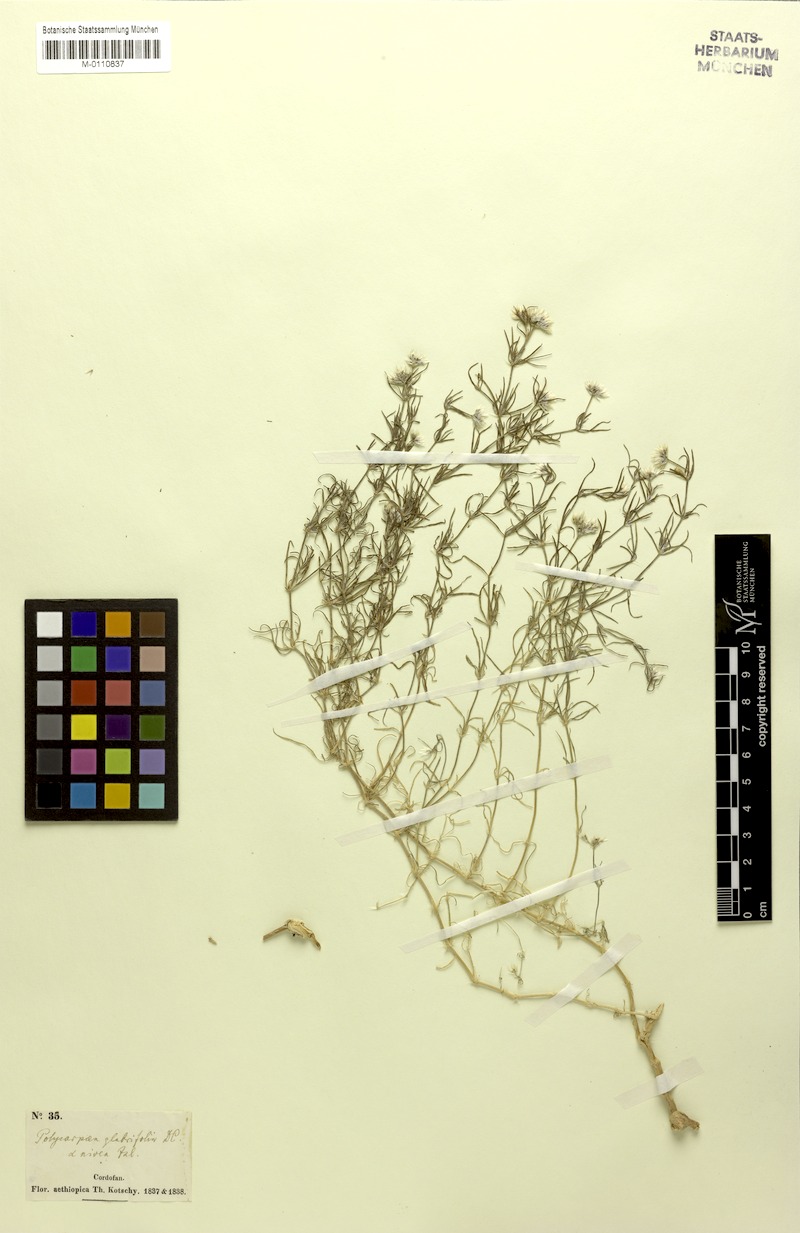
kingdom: Plantae
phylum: Tracheophyta
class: Magnoliopsida
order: Caryophyllales
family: Caryophyllaceae
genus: Polycarpaea
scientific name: Polycarpaea corymbosa
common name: Oldman's cap
